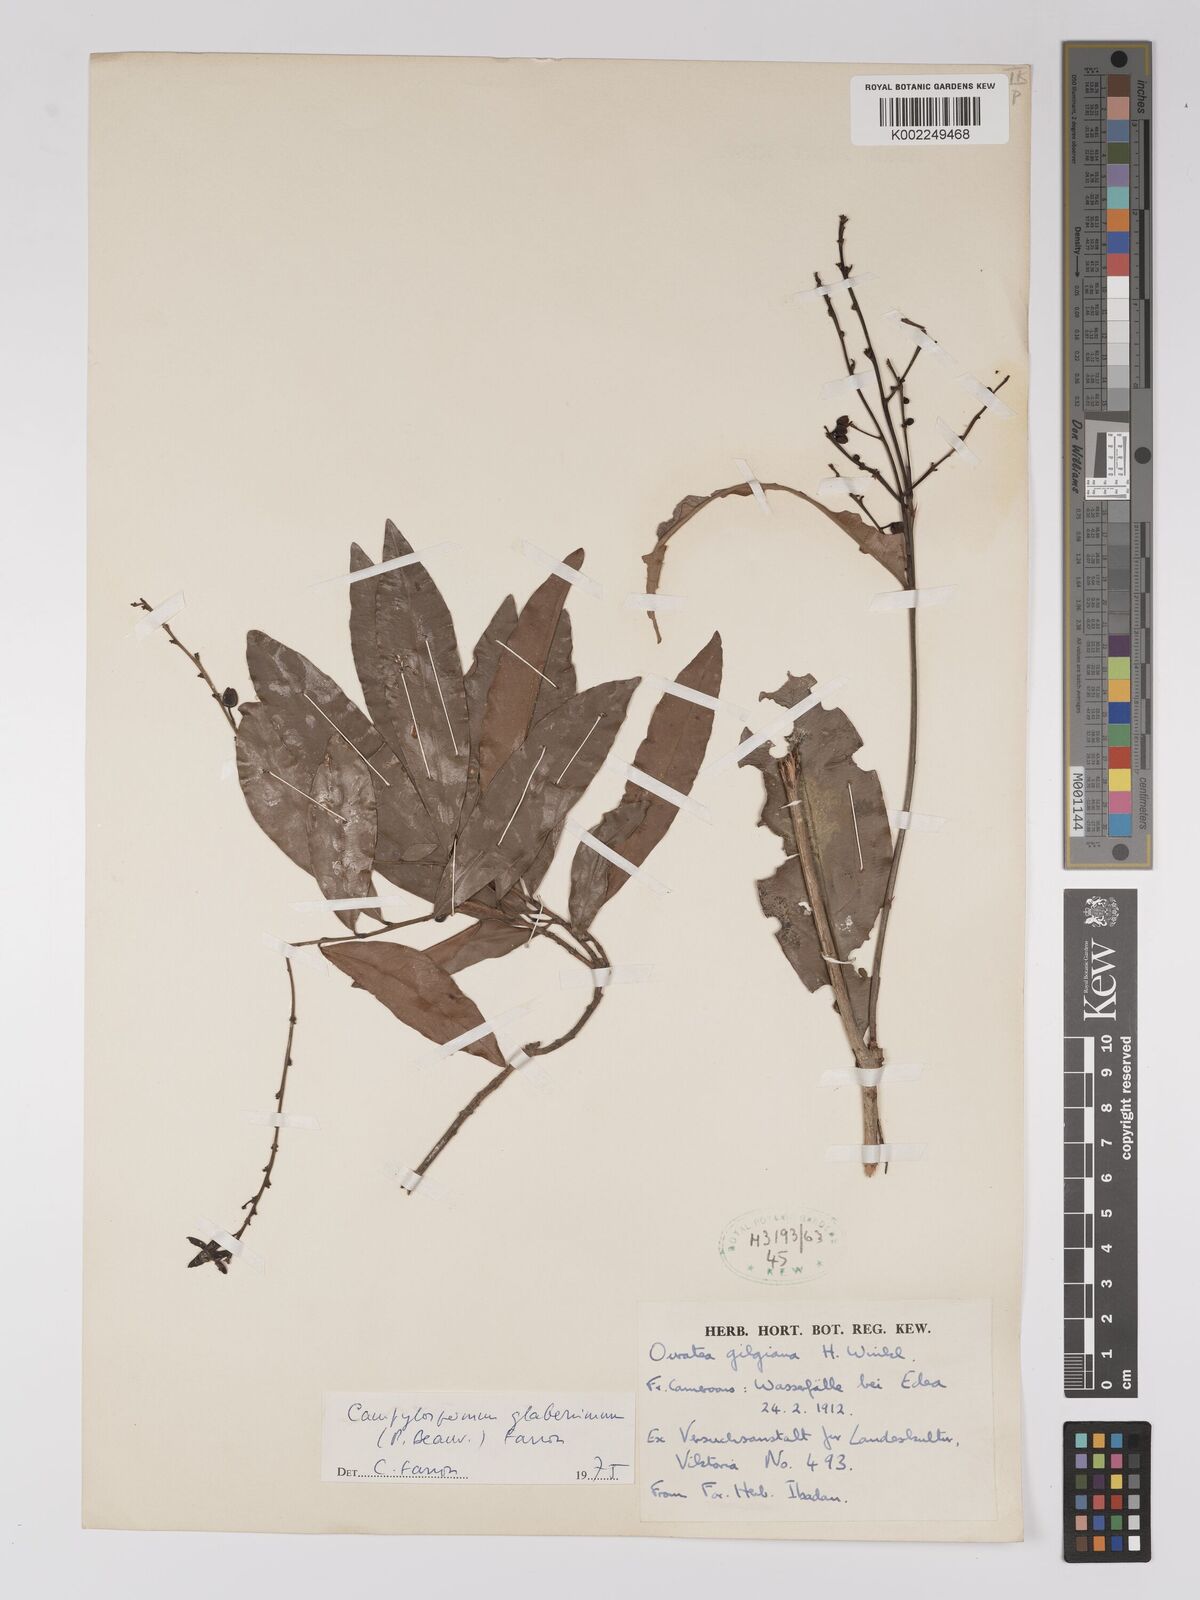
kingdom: Plantae
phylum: Tracheophyta
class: Magnoliopsida
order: Malpighiales
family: Ochnaceae
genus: Campylospermum
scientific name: Campylospermum glaberrimum
